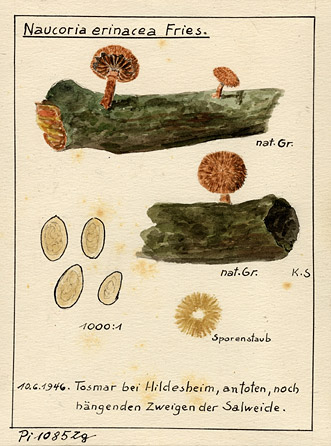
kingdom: Fungi
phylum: Basidiomycota
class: Agaricomycetes
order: Agaricales
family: Tubariaceae
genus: Phaeomarasmius
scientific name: Phaeomarasmius erinaceus
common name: Hedgehog scalycap
